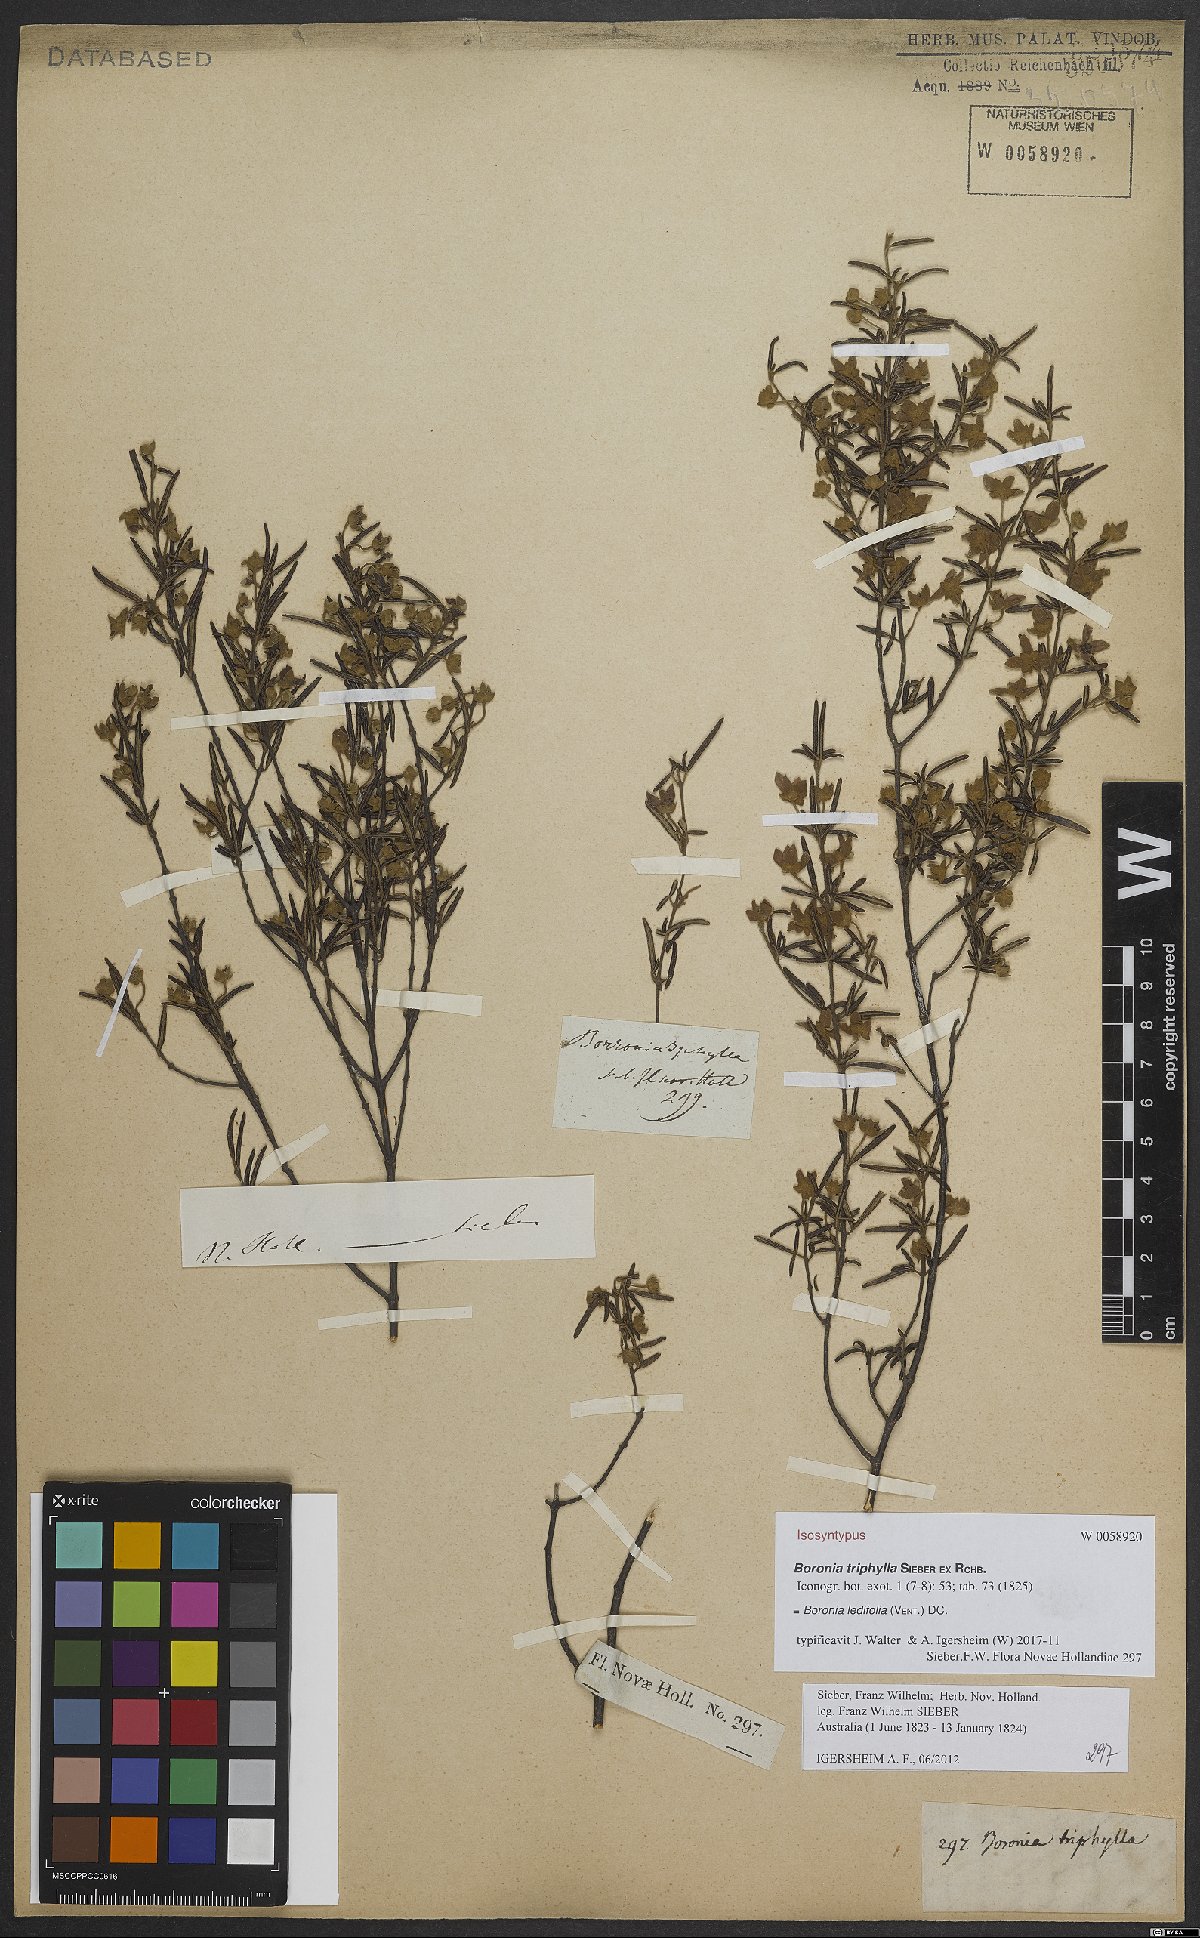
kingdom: Plantae
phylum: Tracheophyta
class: Magnoliopsida
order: Sapindales
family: Rutaceae
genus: Boronia
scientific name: Boronia ledifolia
